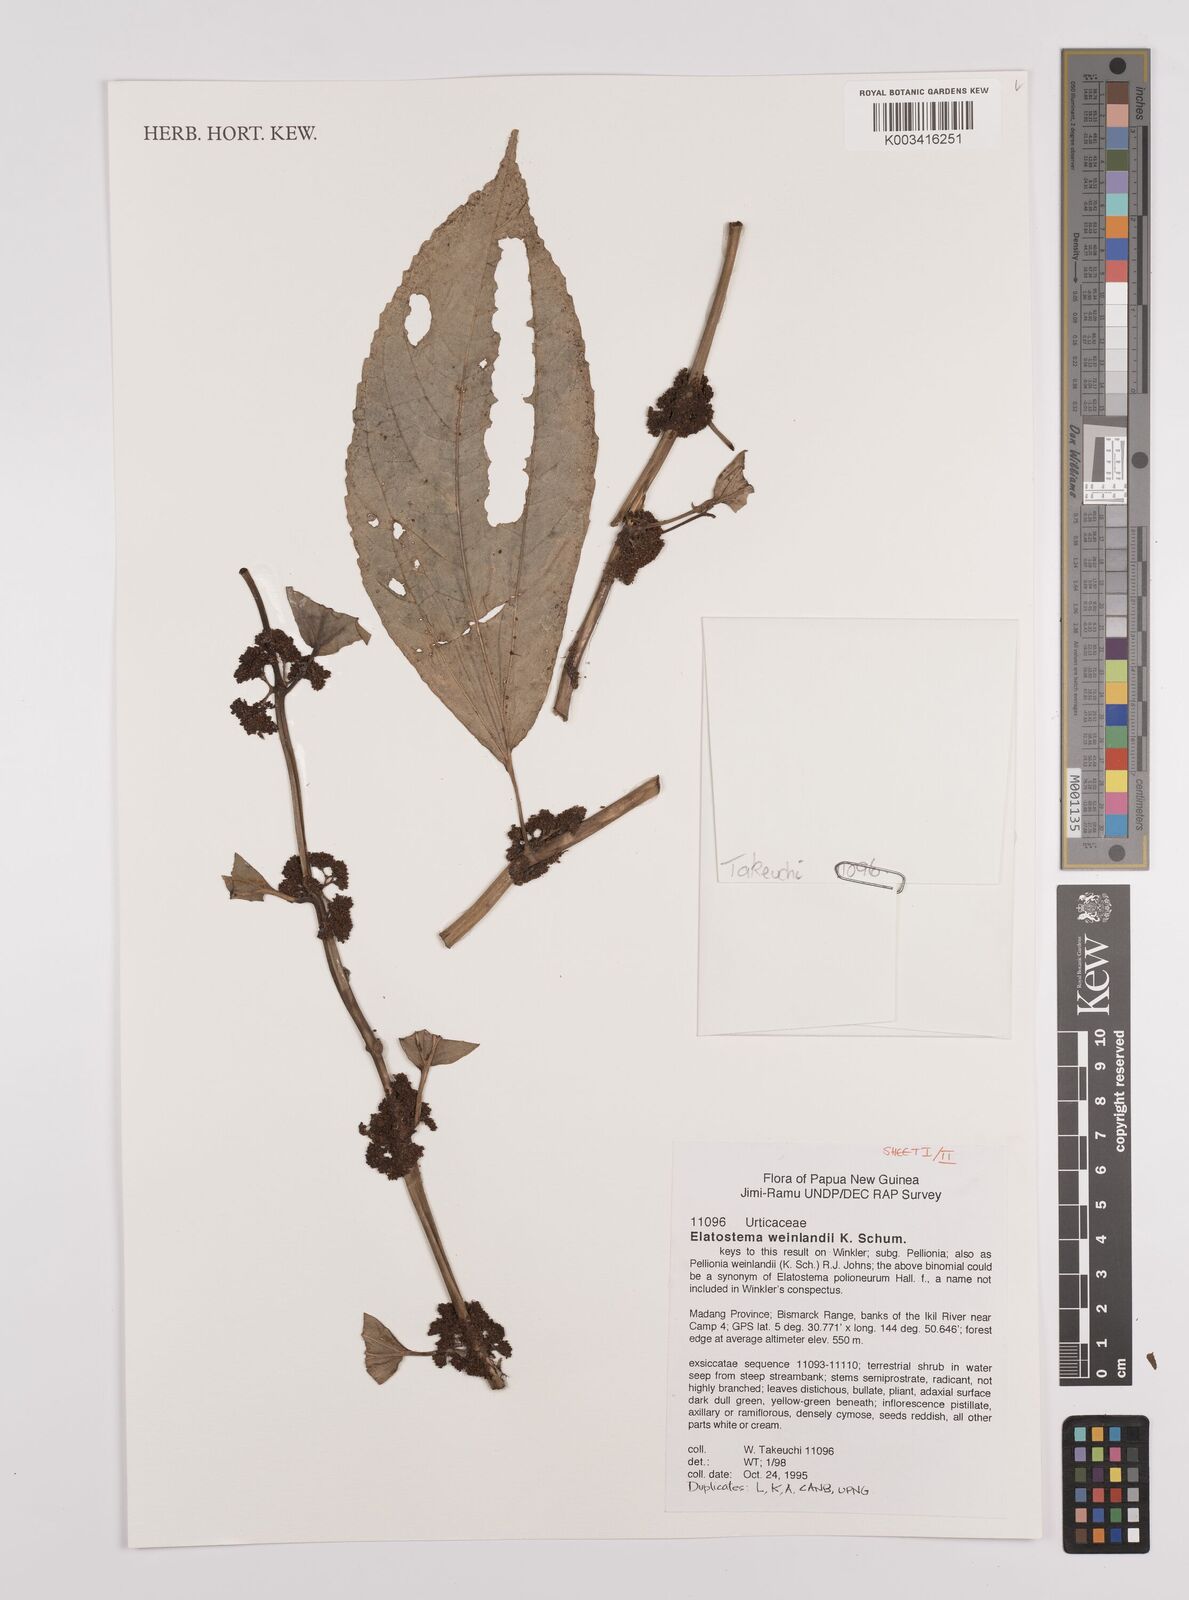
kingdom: Plantae
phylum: Tracheophyta
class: Magnoliopsida
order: Rosales
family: Urticaceae
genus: Elatostema
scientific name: Elatostema weinlandii
